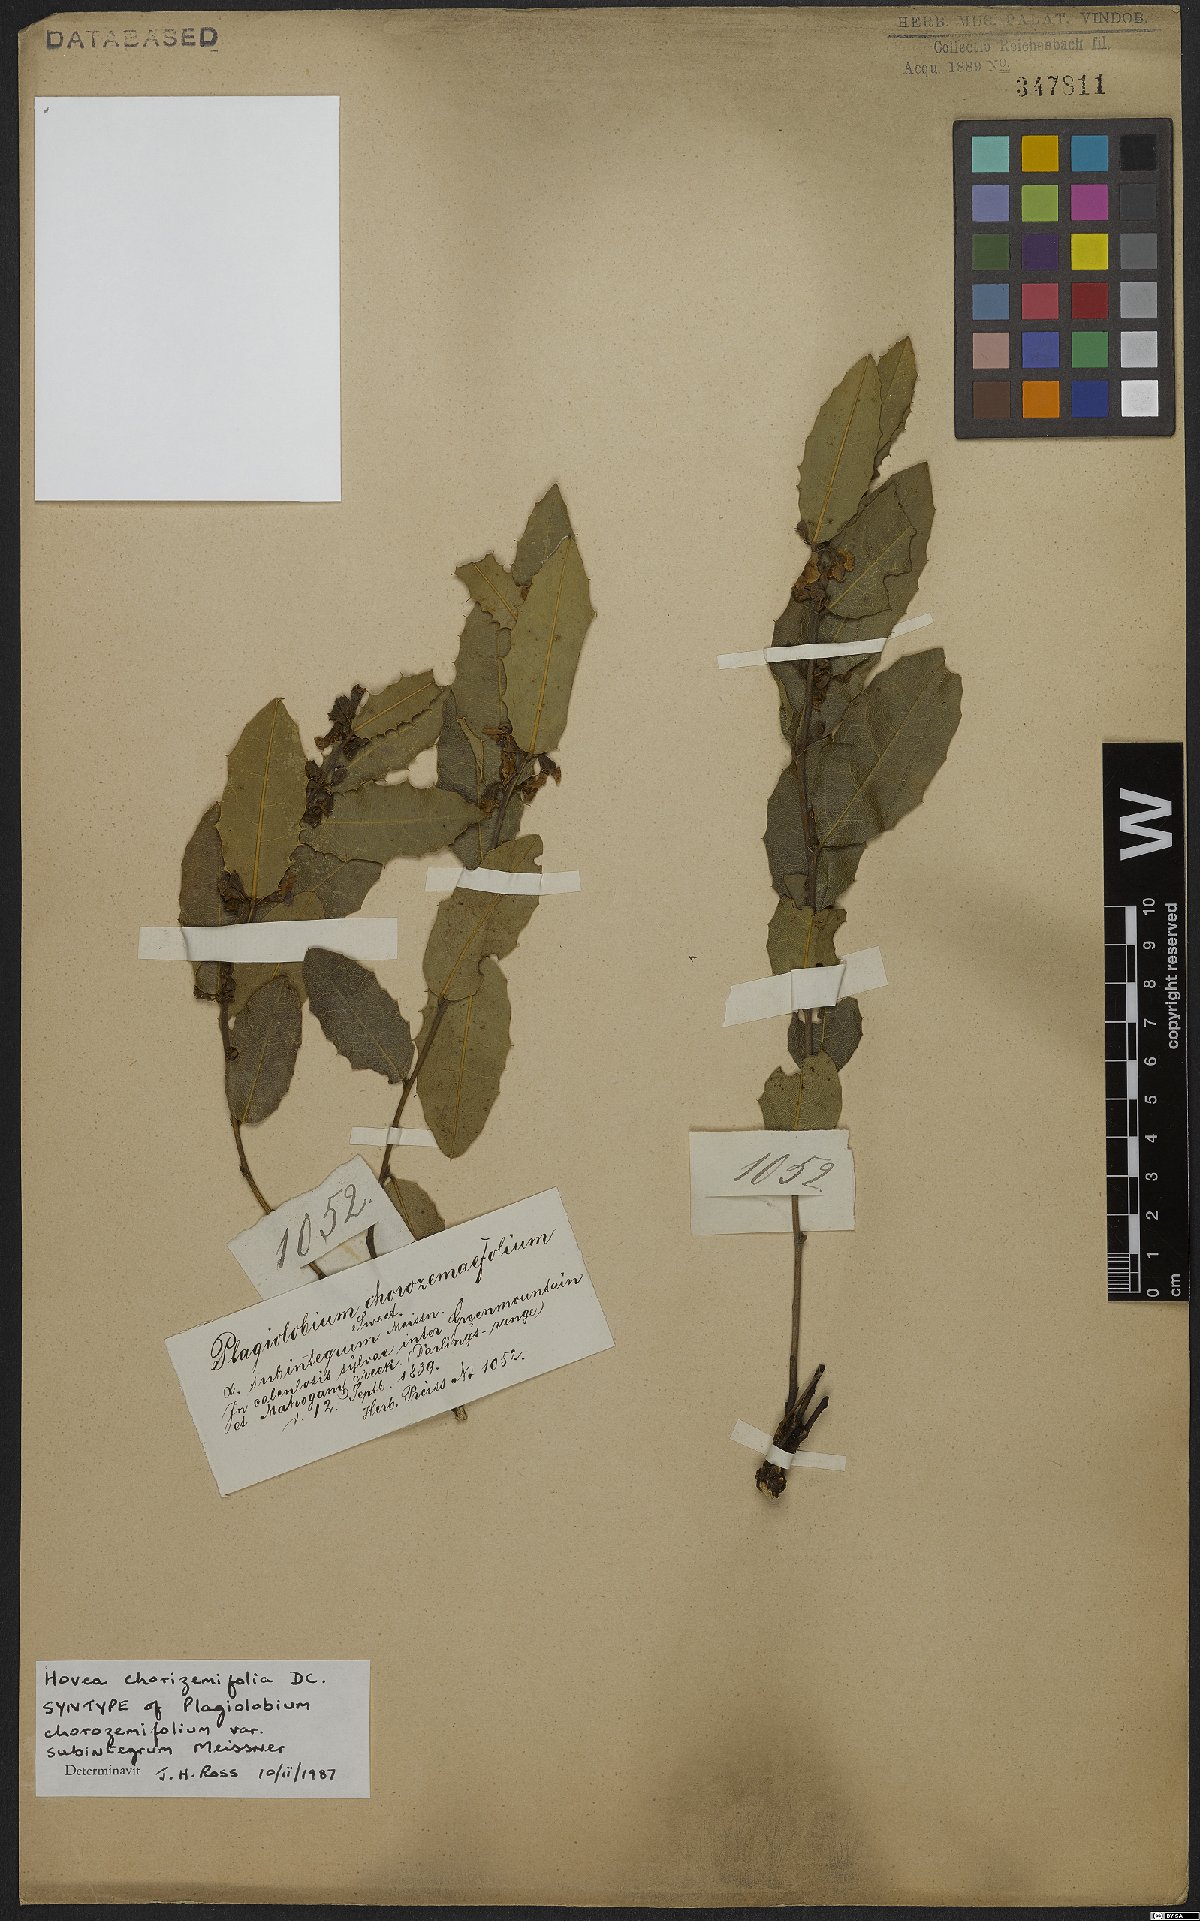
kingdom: Plantae
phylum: Tracheophyta
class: Magnoliopsida
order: Fabales
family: Fabaceae
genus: Hovea
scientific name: Hovea chorizemifolia
